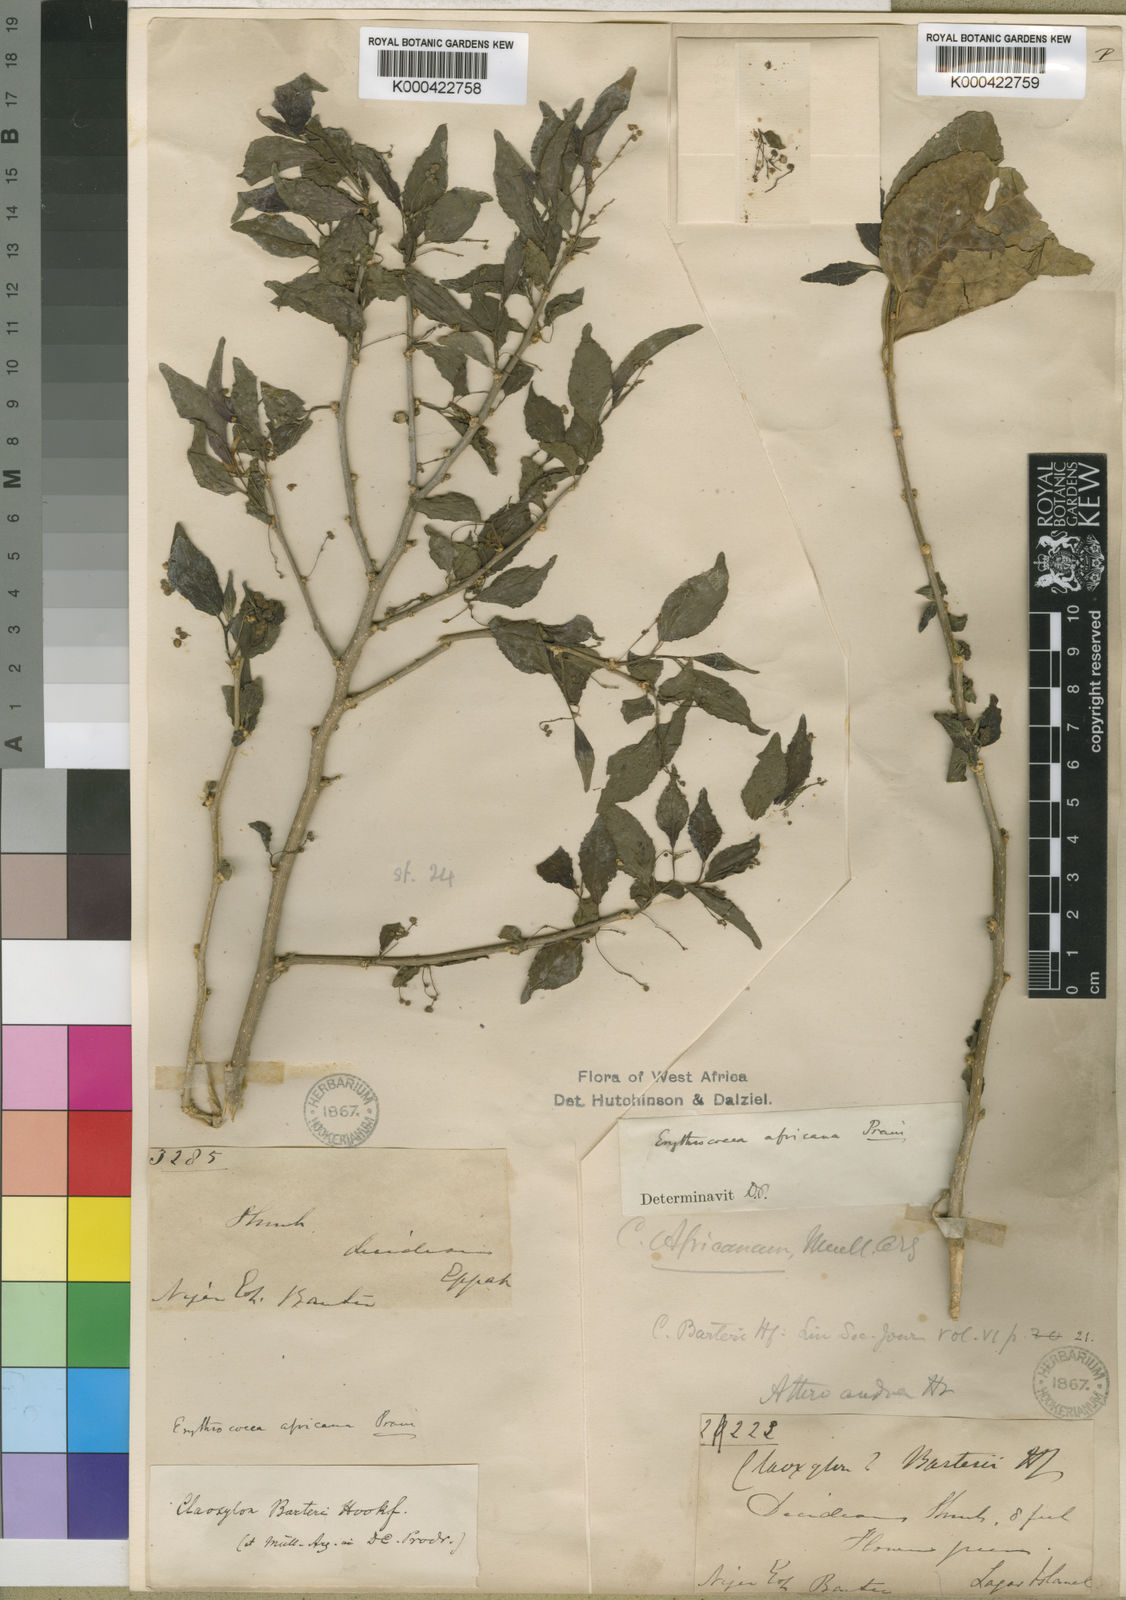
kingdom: Plantae
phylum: Tracheophyta
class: Magnoliopsida
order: Malpighiales
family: Euphorbiaceae
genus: Erythrococca
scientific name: Erythrococca africana
